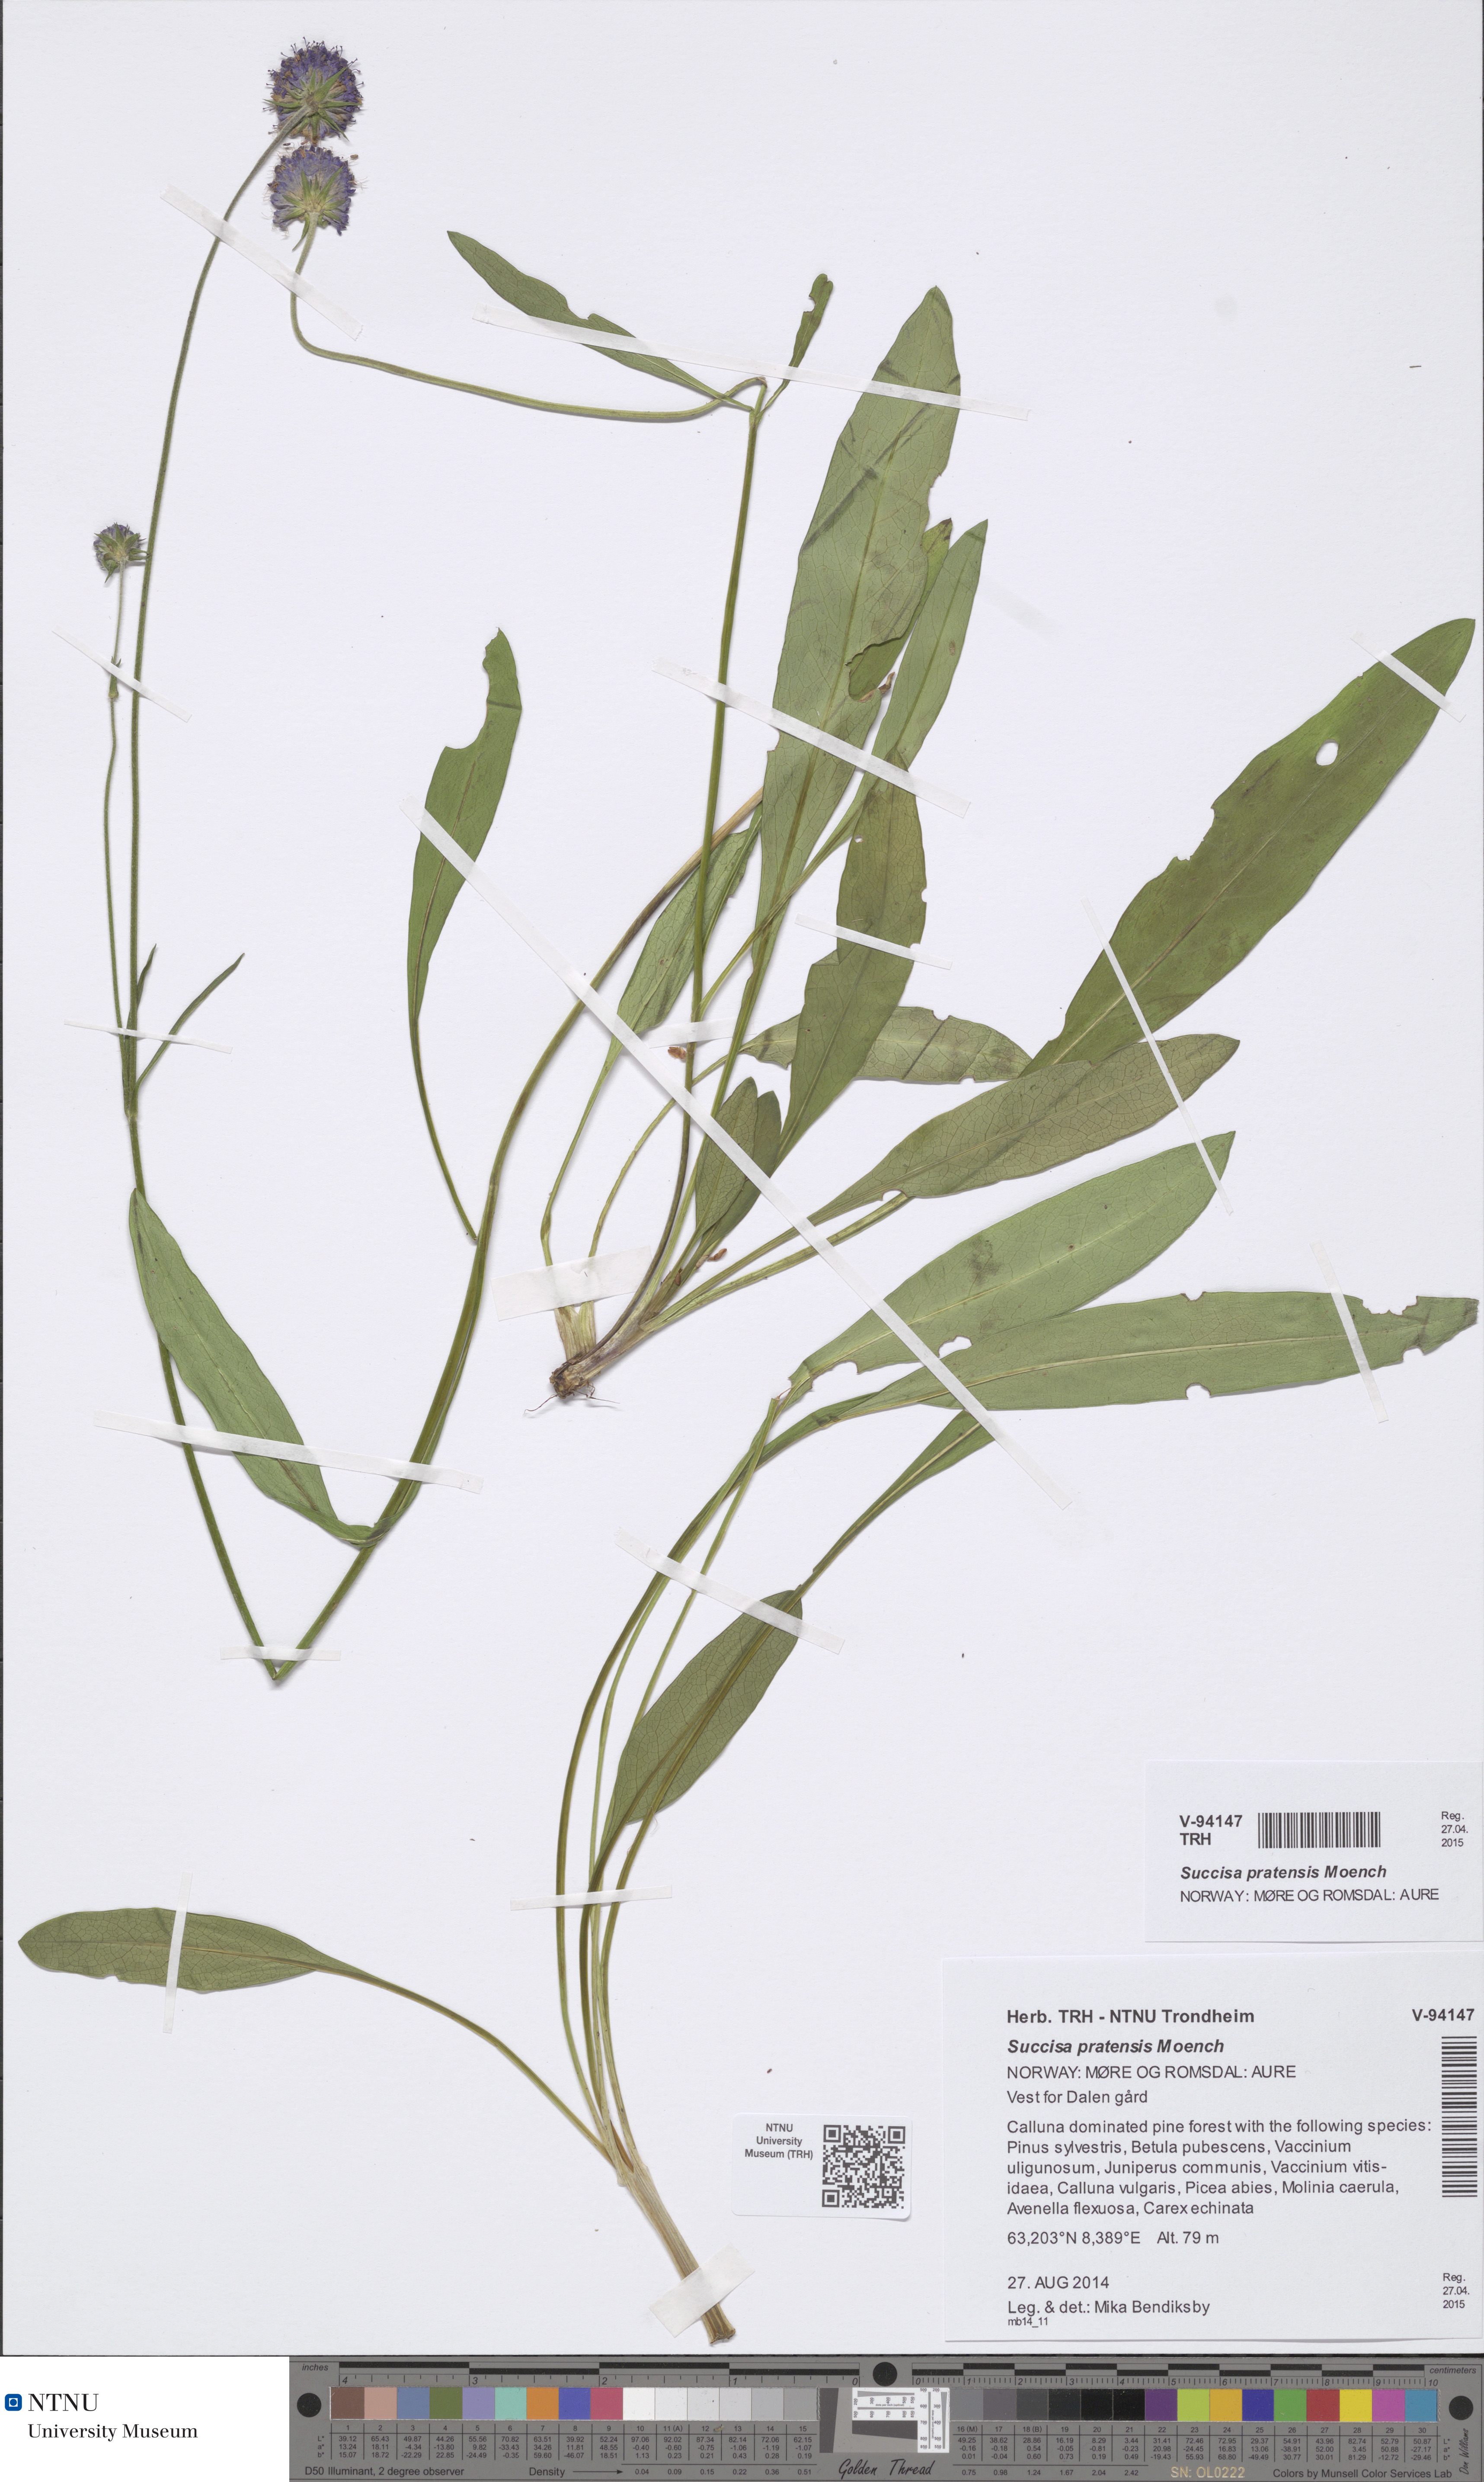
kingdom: Plantae
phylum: Tracheophyta
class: Magnoliopsida
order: Dipsacales
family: Caprifoliaceae
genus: Succisa
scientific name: Succisa pratensis
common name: Devil's-bit
